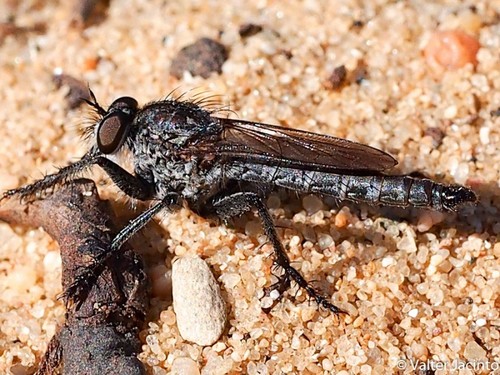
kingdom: Animalia
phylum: Arthropoda
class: Insecta
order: Diptera
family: Asilidae
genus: Machimus
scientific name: Machimus concinnus
